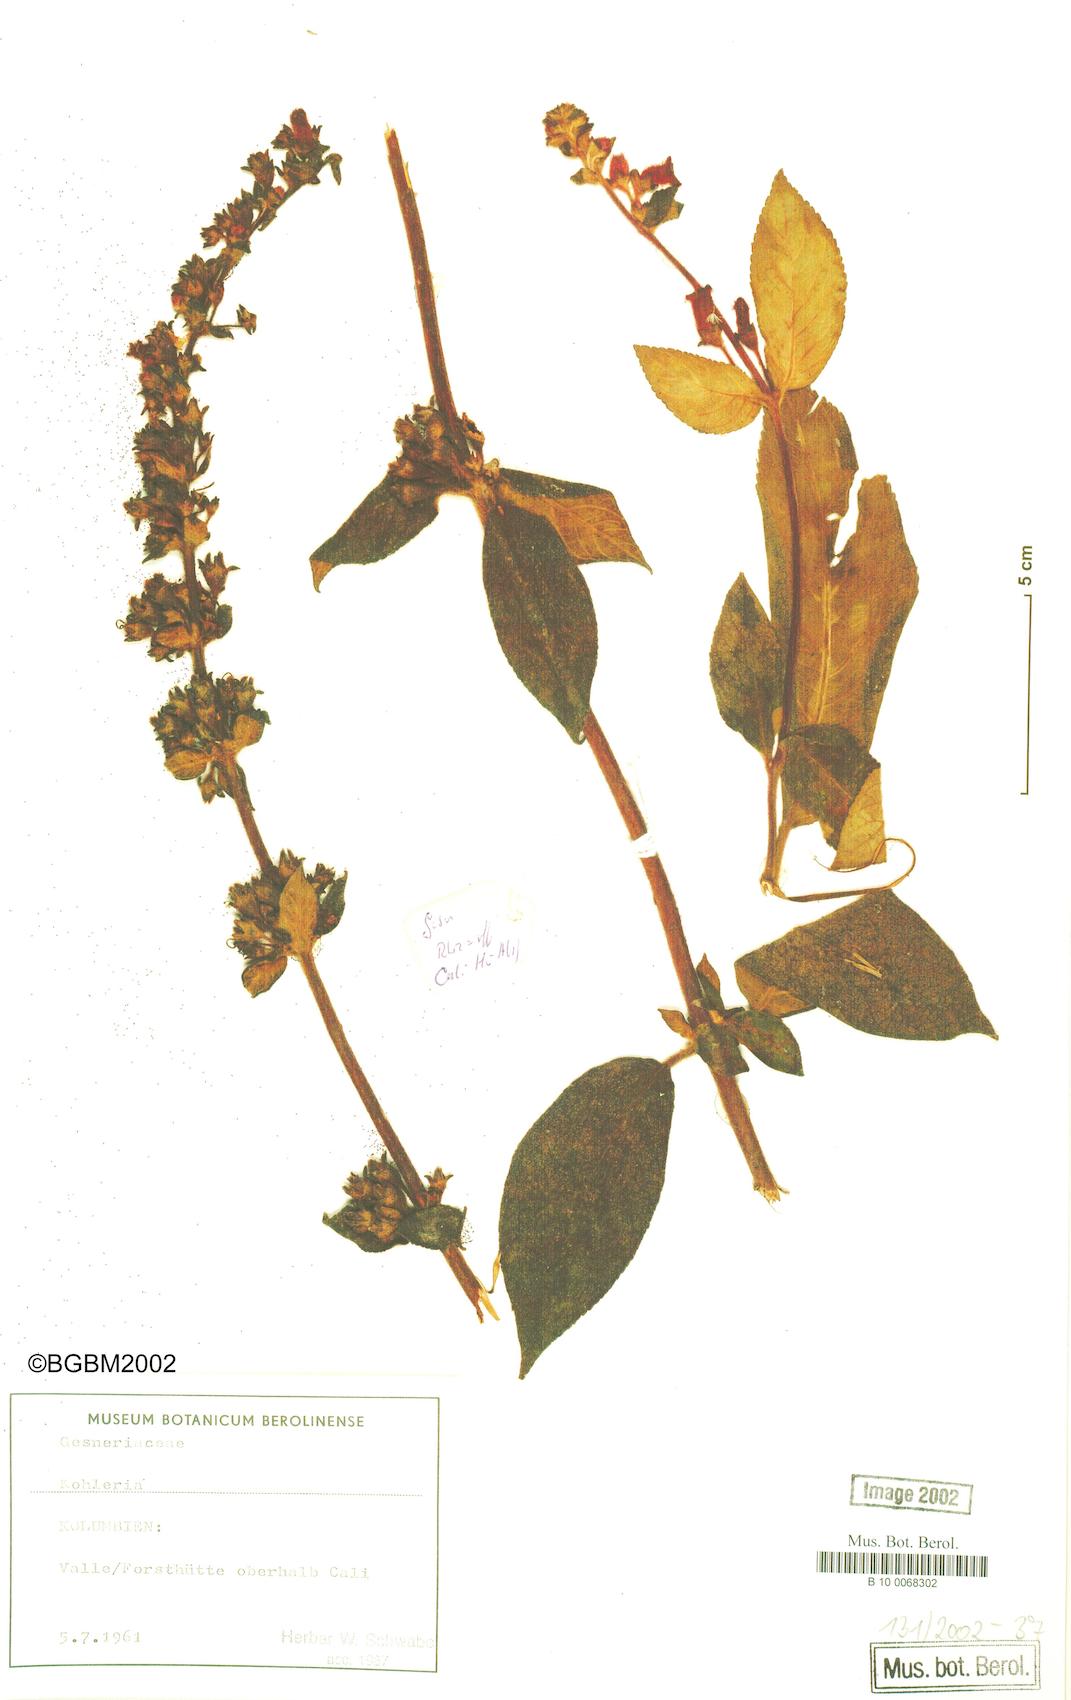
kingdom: Plantae
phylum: Tracheophyta
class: Magnoliopsida
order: Lamiales
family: Gesneriaceae
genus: Kohleria
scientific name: Kohleria
